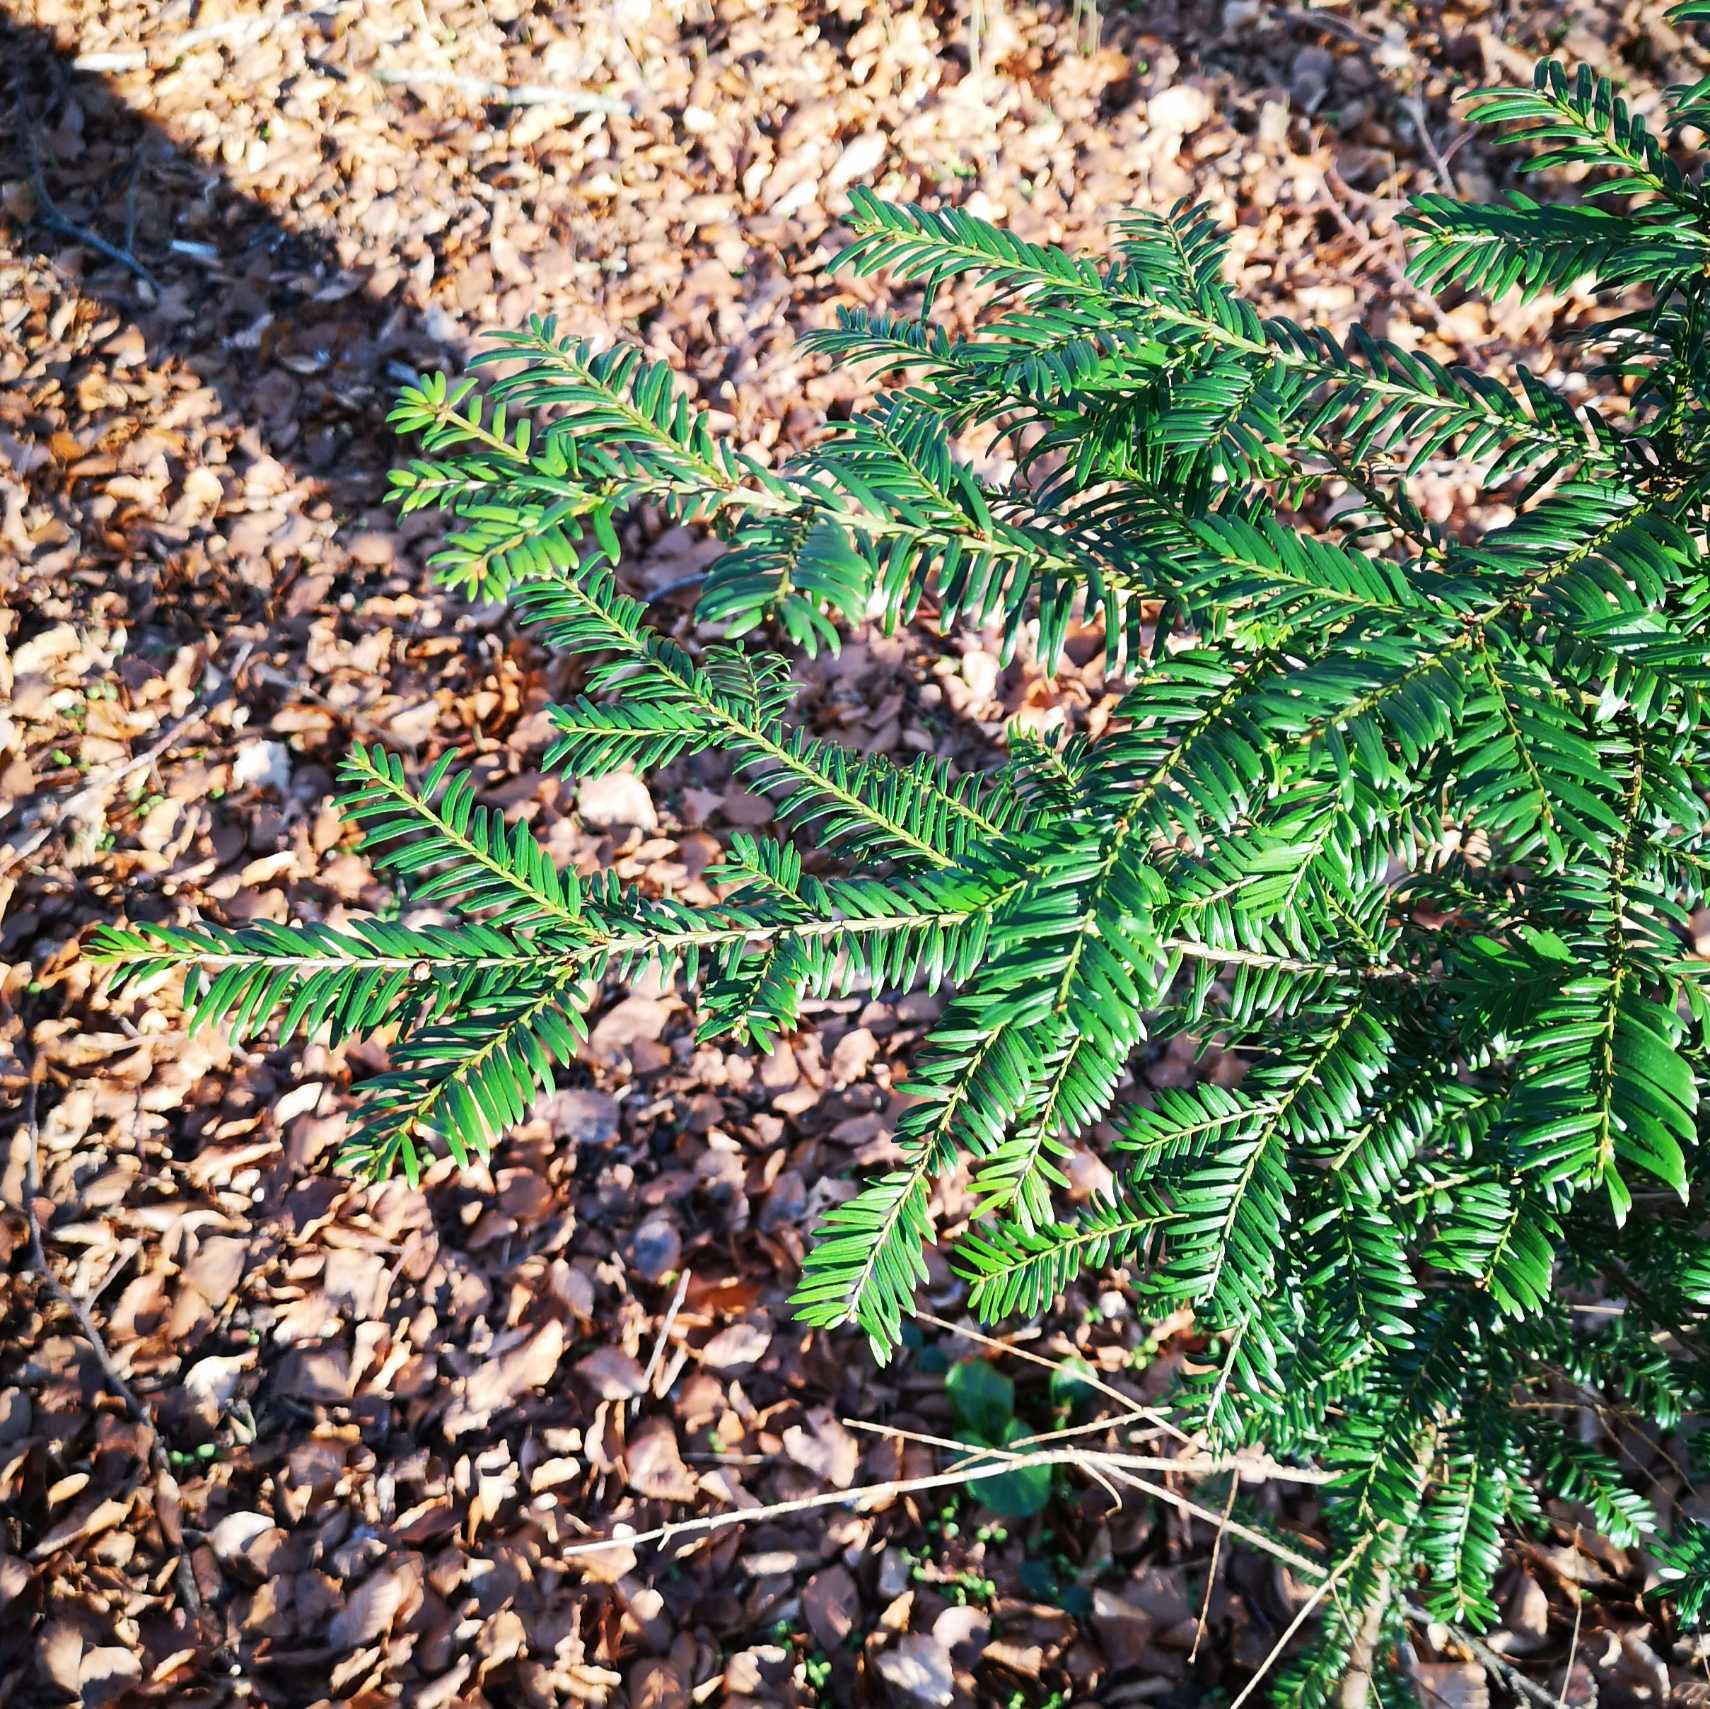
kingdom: Plantae
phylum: Tracheophyta
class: Pinopsida
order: Pinales
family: Taxaceae
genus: Taxus
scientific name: Taxus baccata
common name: Almindelig taks
